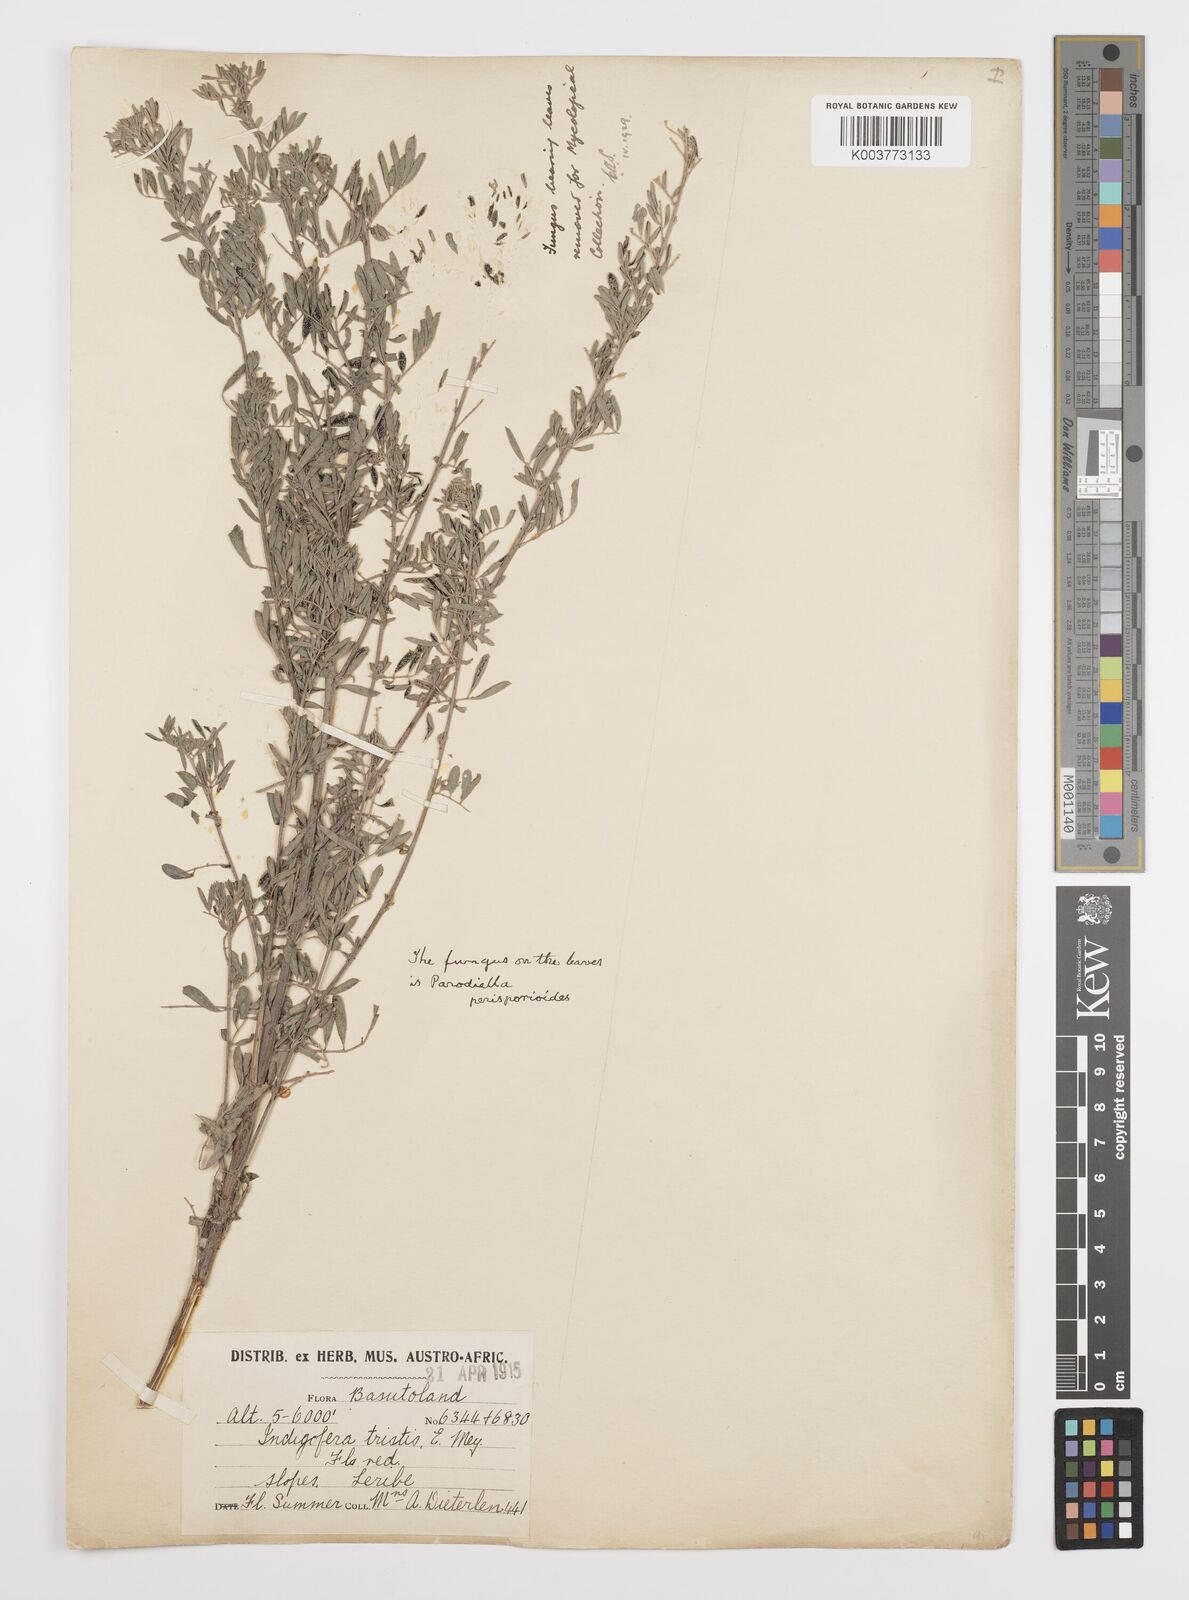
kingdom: Plantae
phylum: Tracheophyta
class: Magnoliopsida
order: Fabales
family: Fabaceae
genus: Indigofera
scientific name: Indigofera
